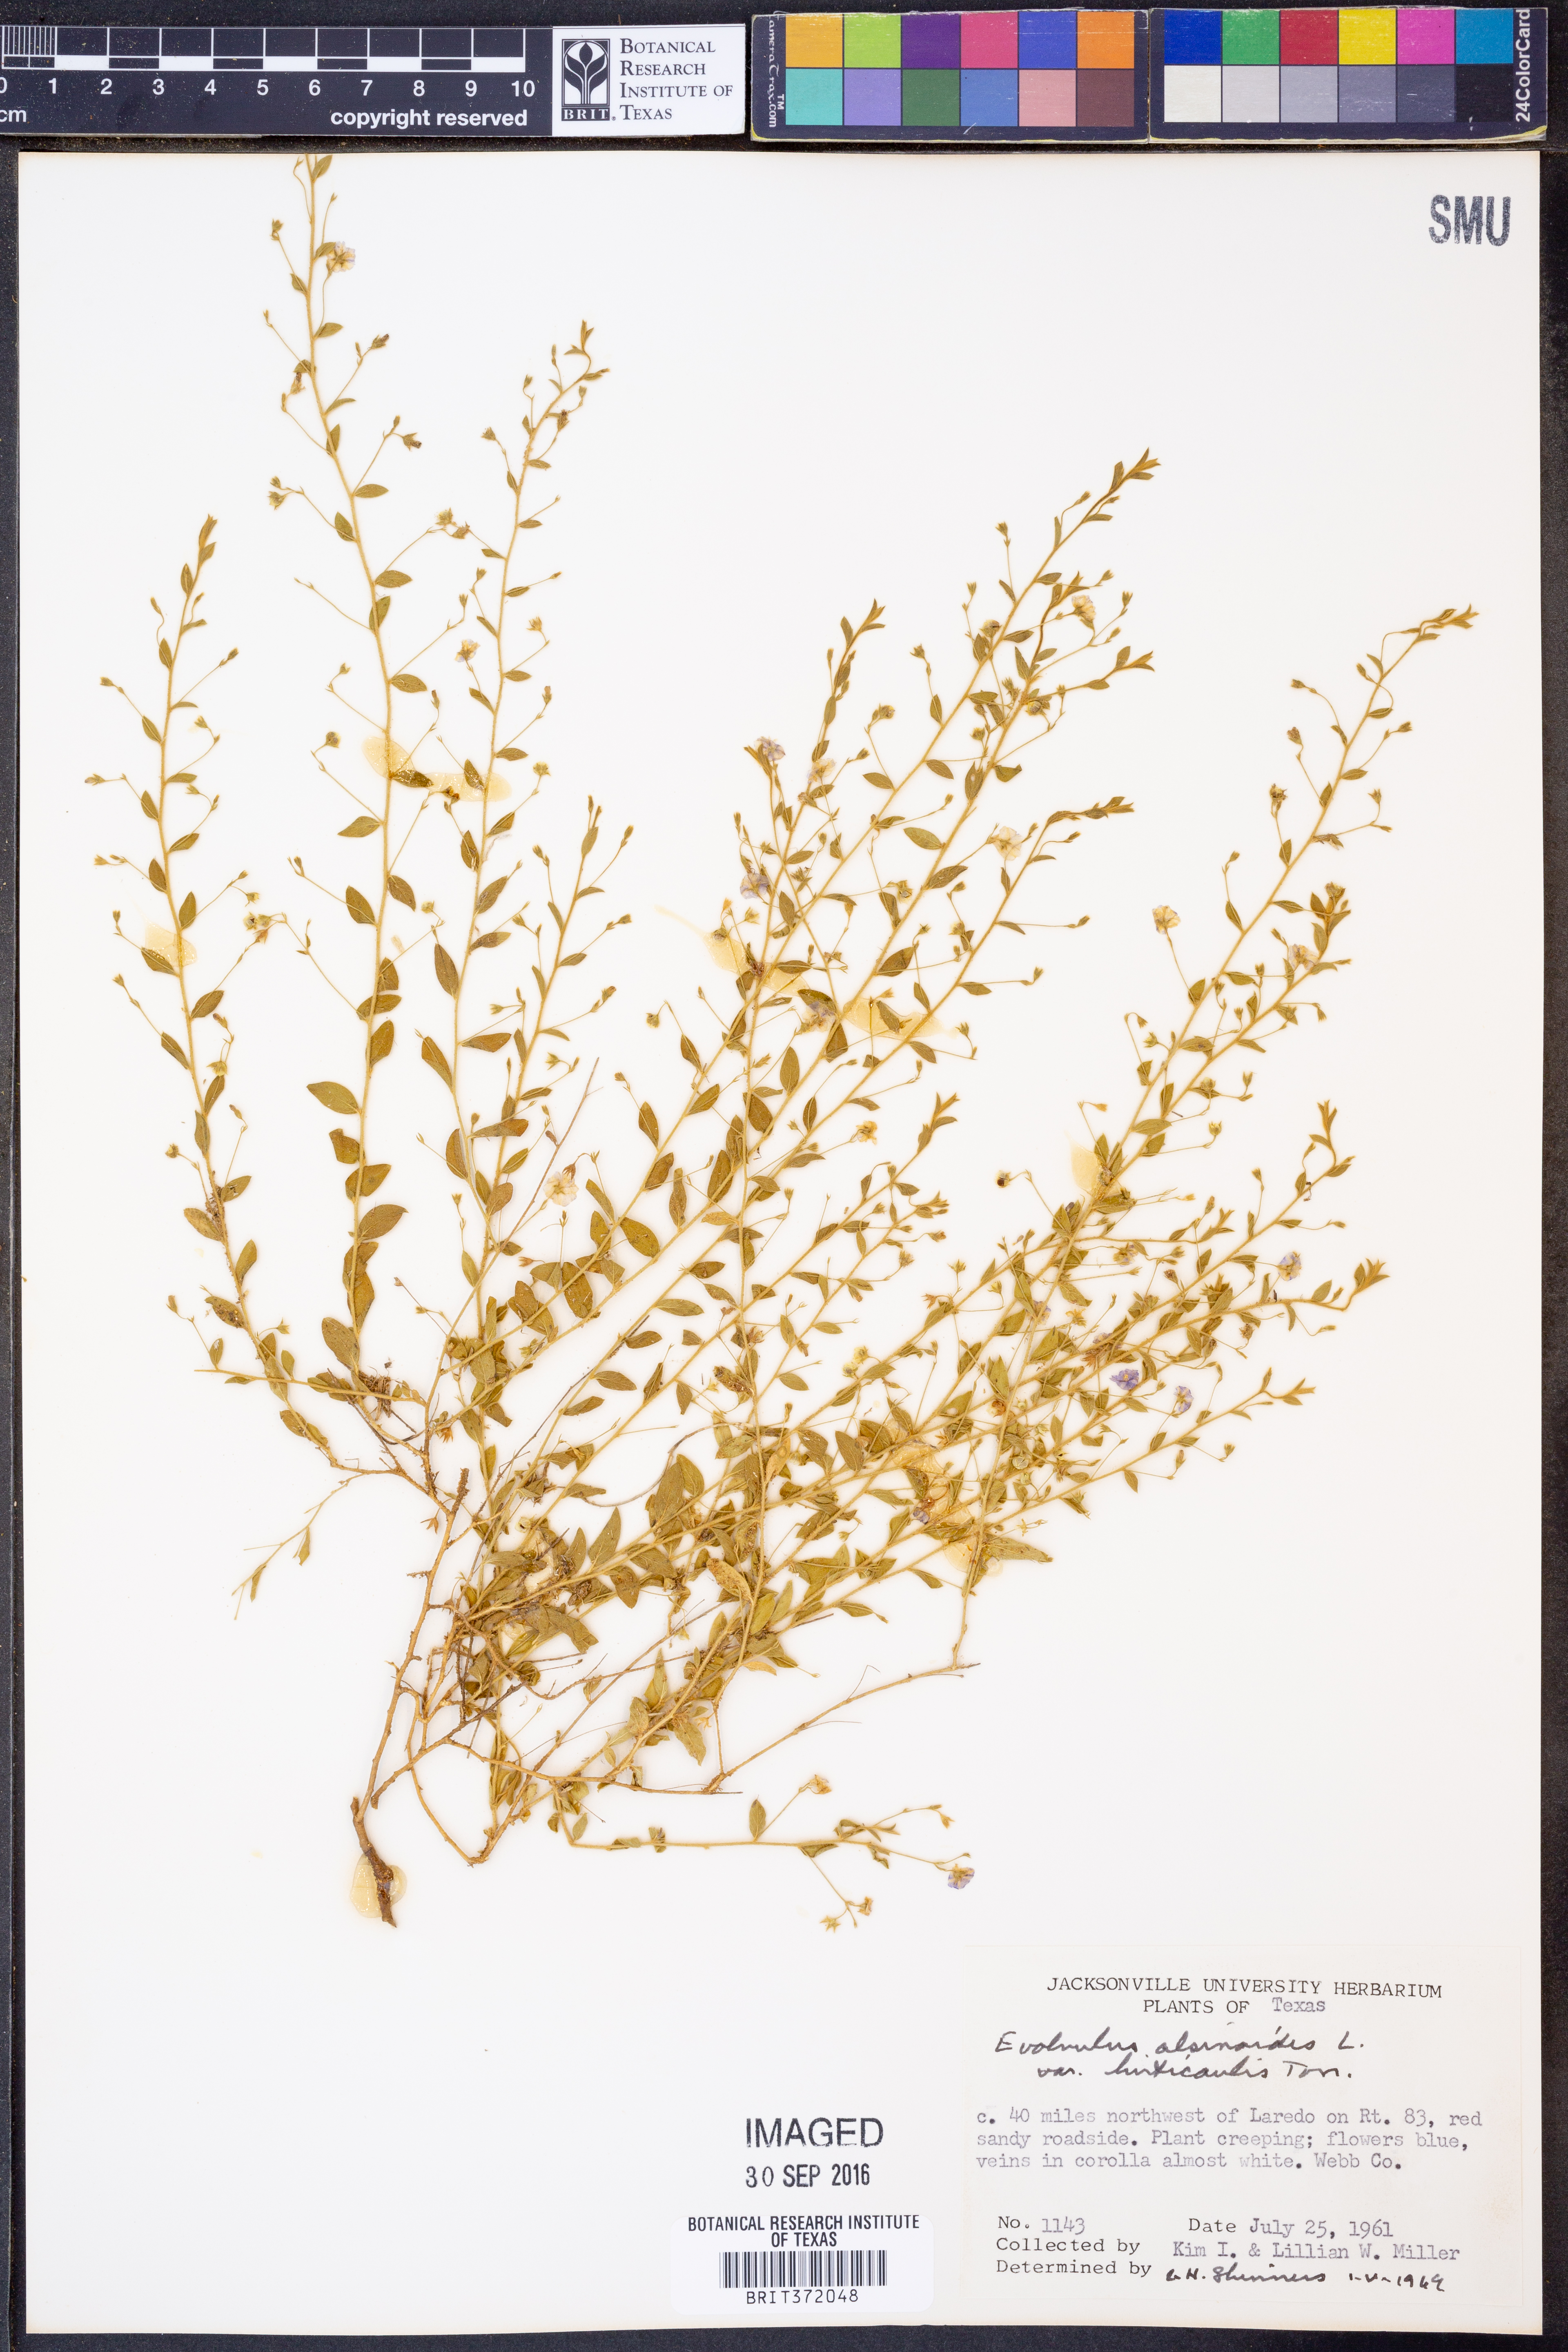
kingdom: Plantae
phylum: Tracheophyta
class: Magnoliopsida
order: Solanales
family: Convolvulaceae
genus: Evolvulus
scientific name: Evolvulus alsinoides
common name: Slender dwarf morning-glory
